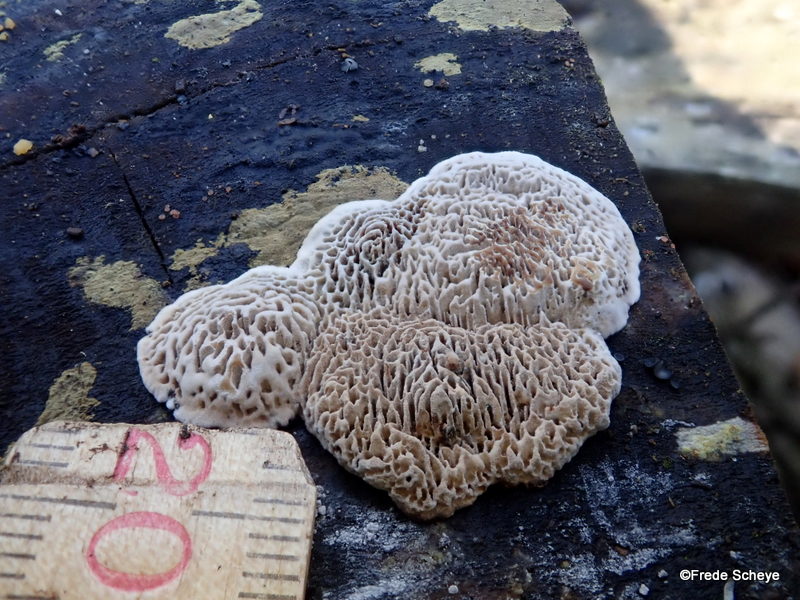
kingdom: Fungi
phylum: Basidiomycota
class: Agaricomycetes
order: Polyporales
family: Polyporaceae
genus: Podofomes
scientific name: Podofomes mollis
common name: blød begporesvamp
